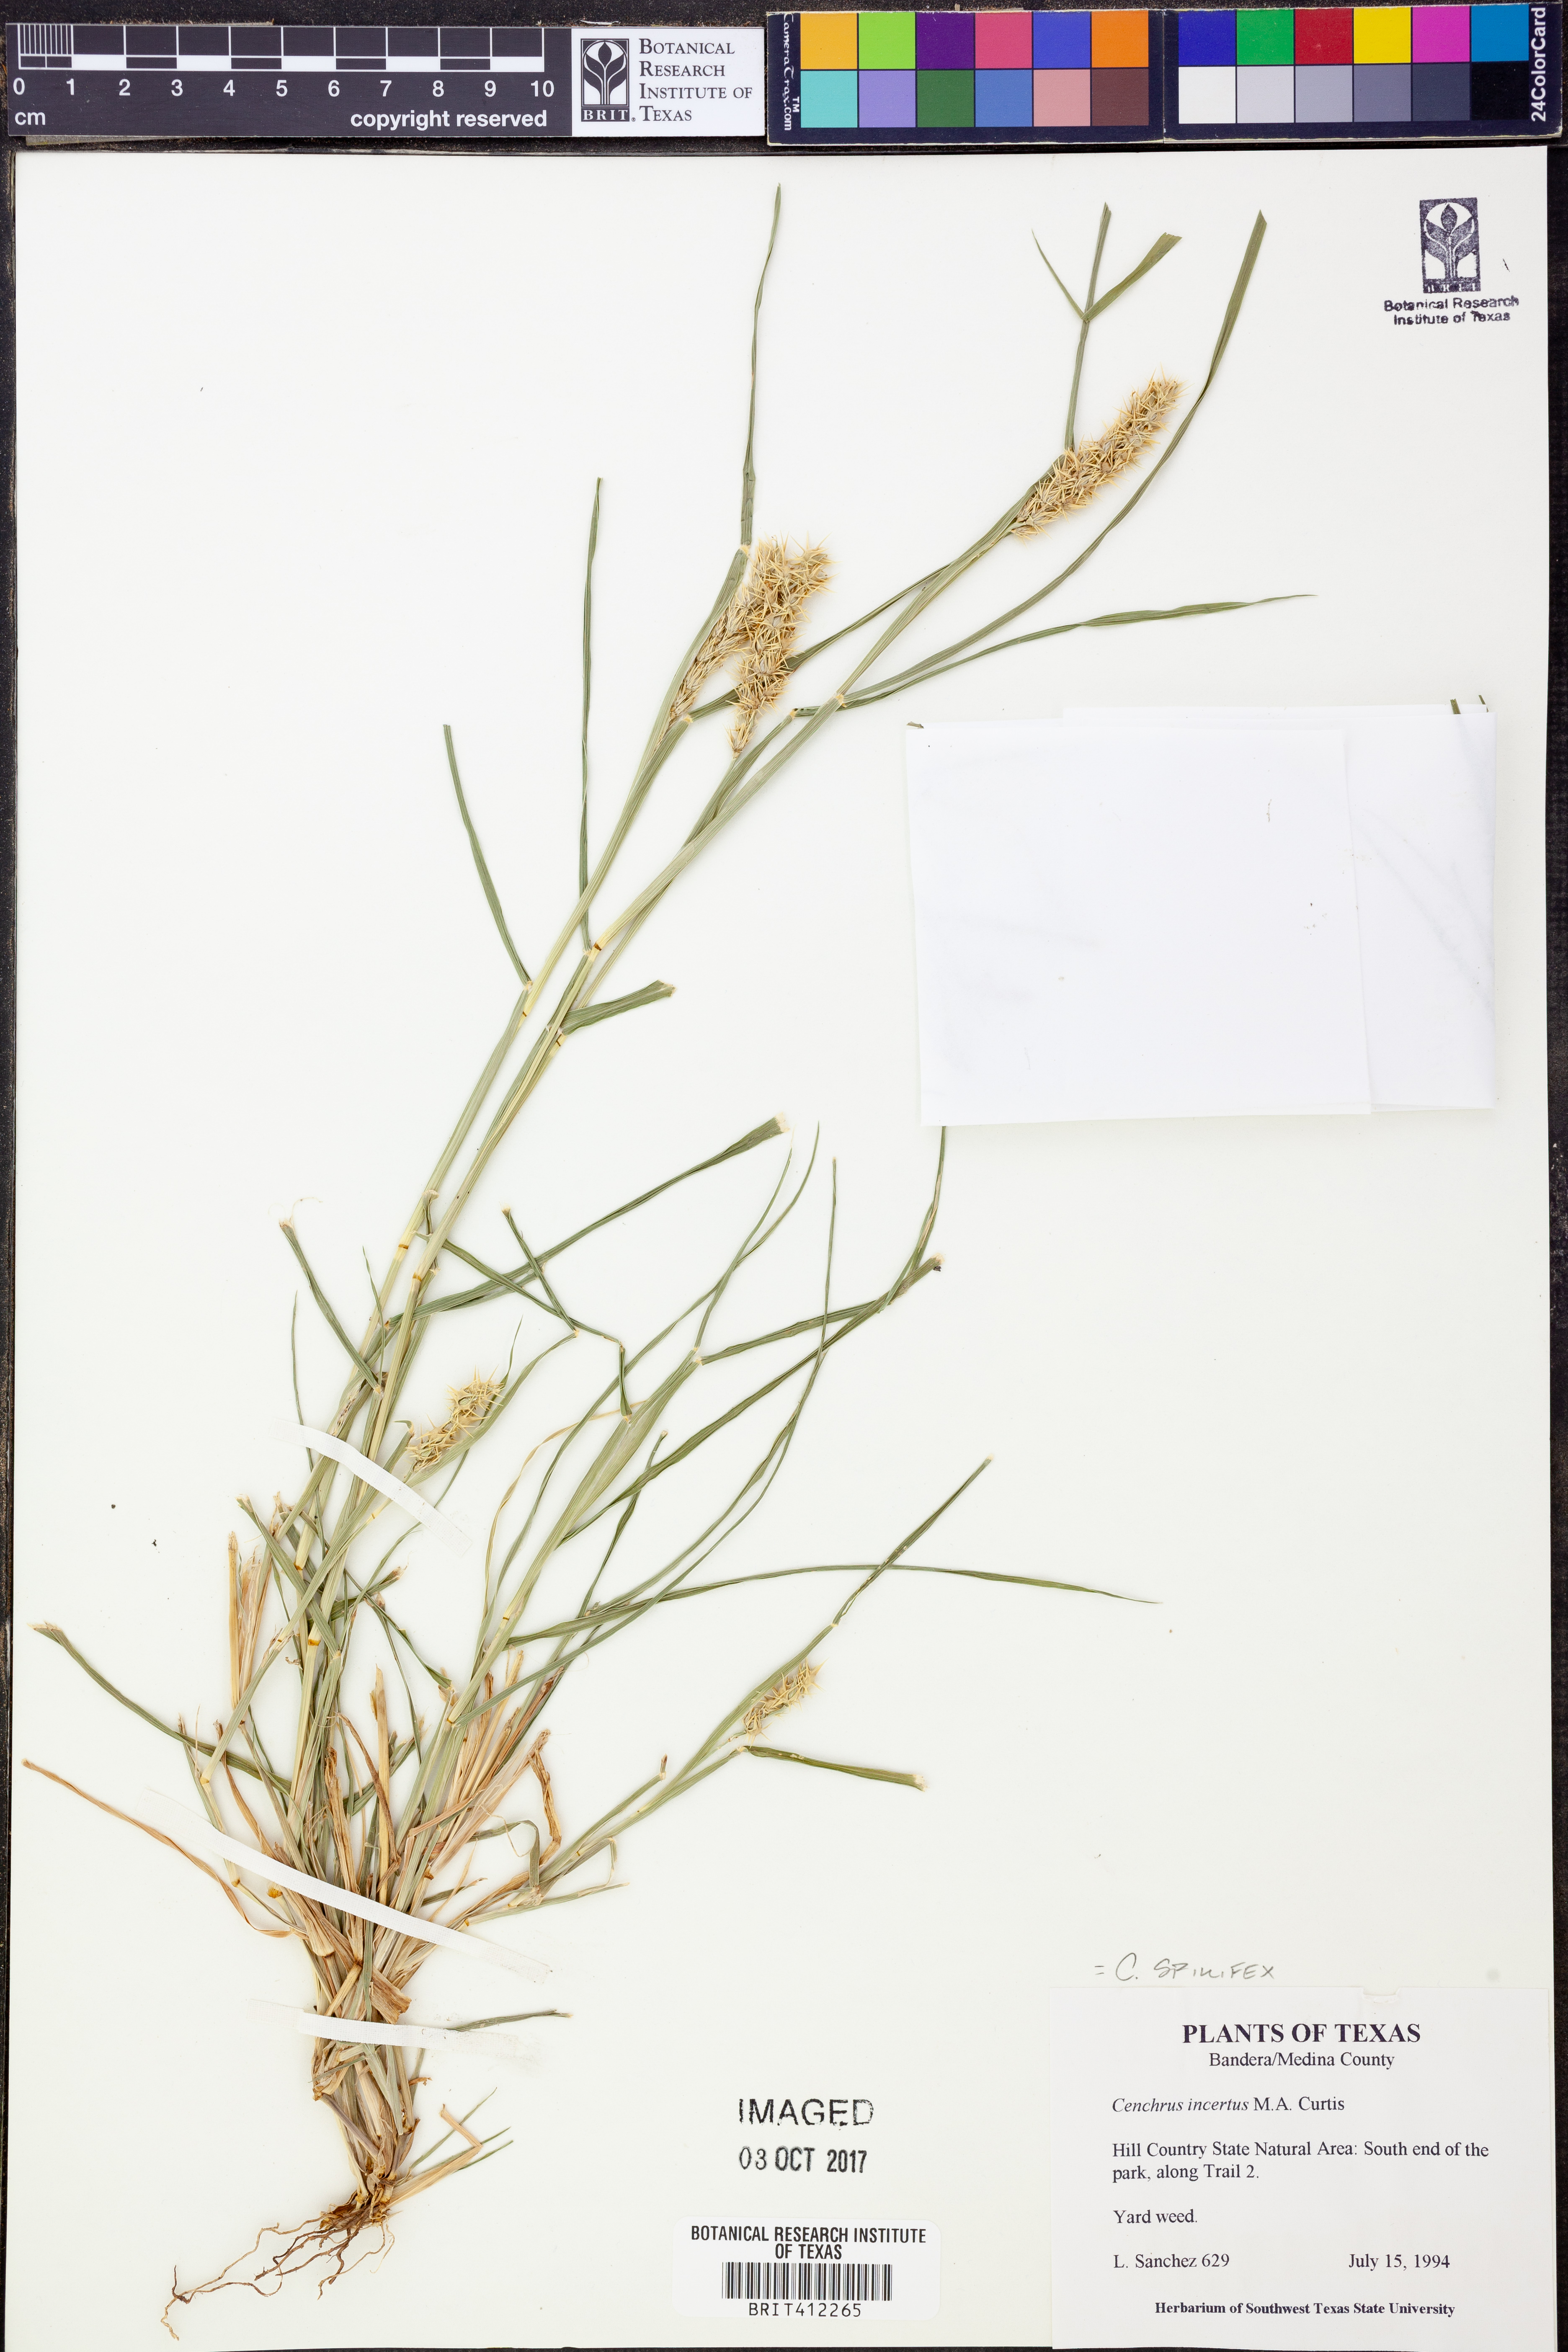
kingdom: Plantae
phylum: Tracheophyta
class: Liliopsida
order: Poales
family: Poaceae
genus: Cenchrus
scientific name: Cenchrus spinifex
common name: Coast sandbur
